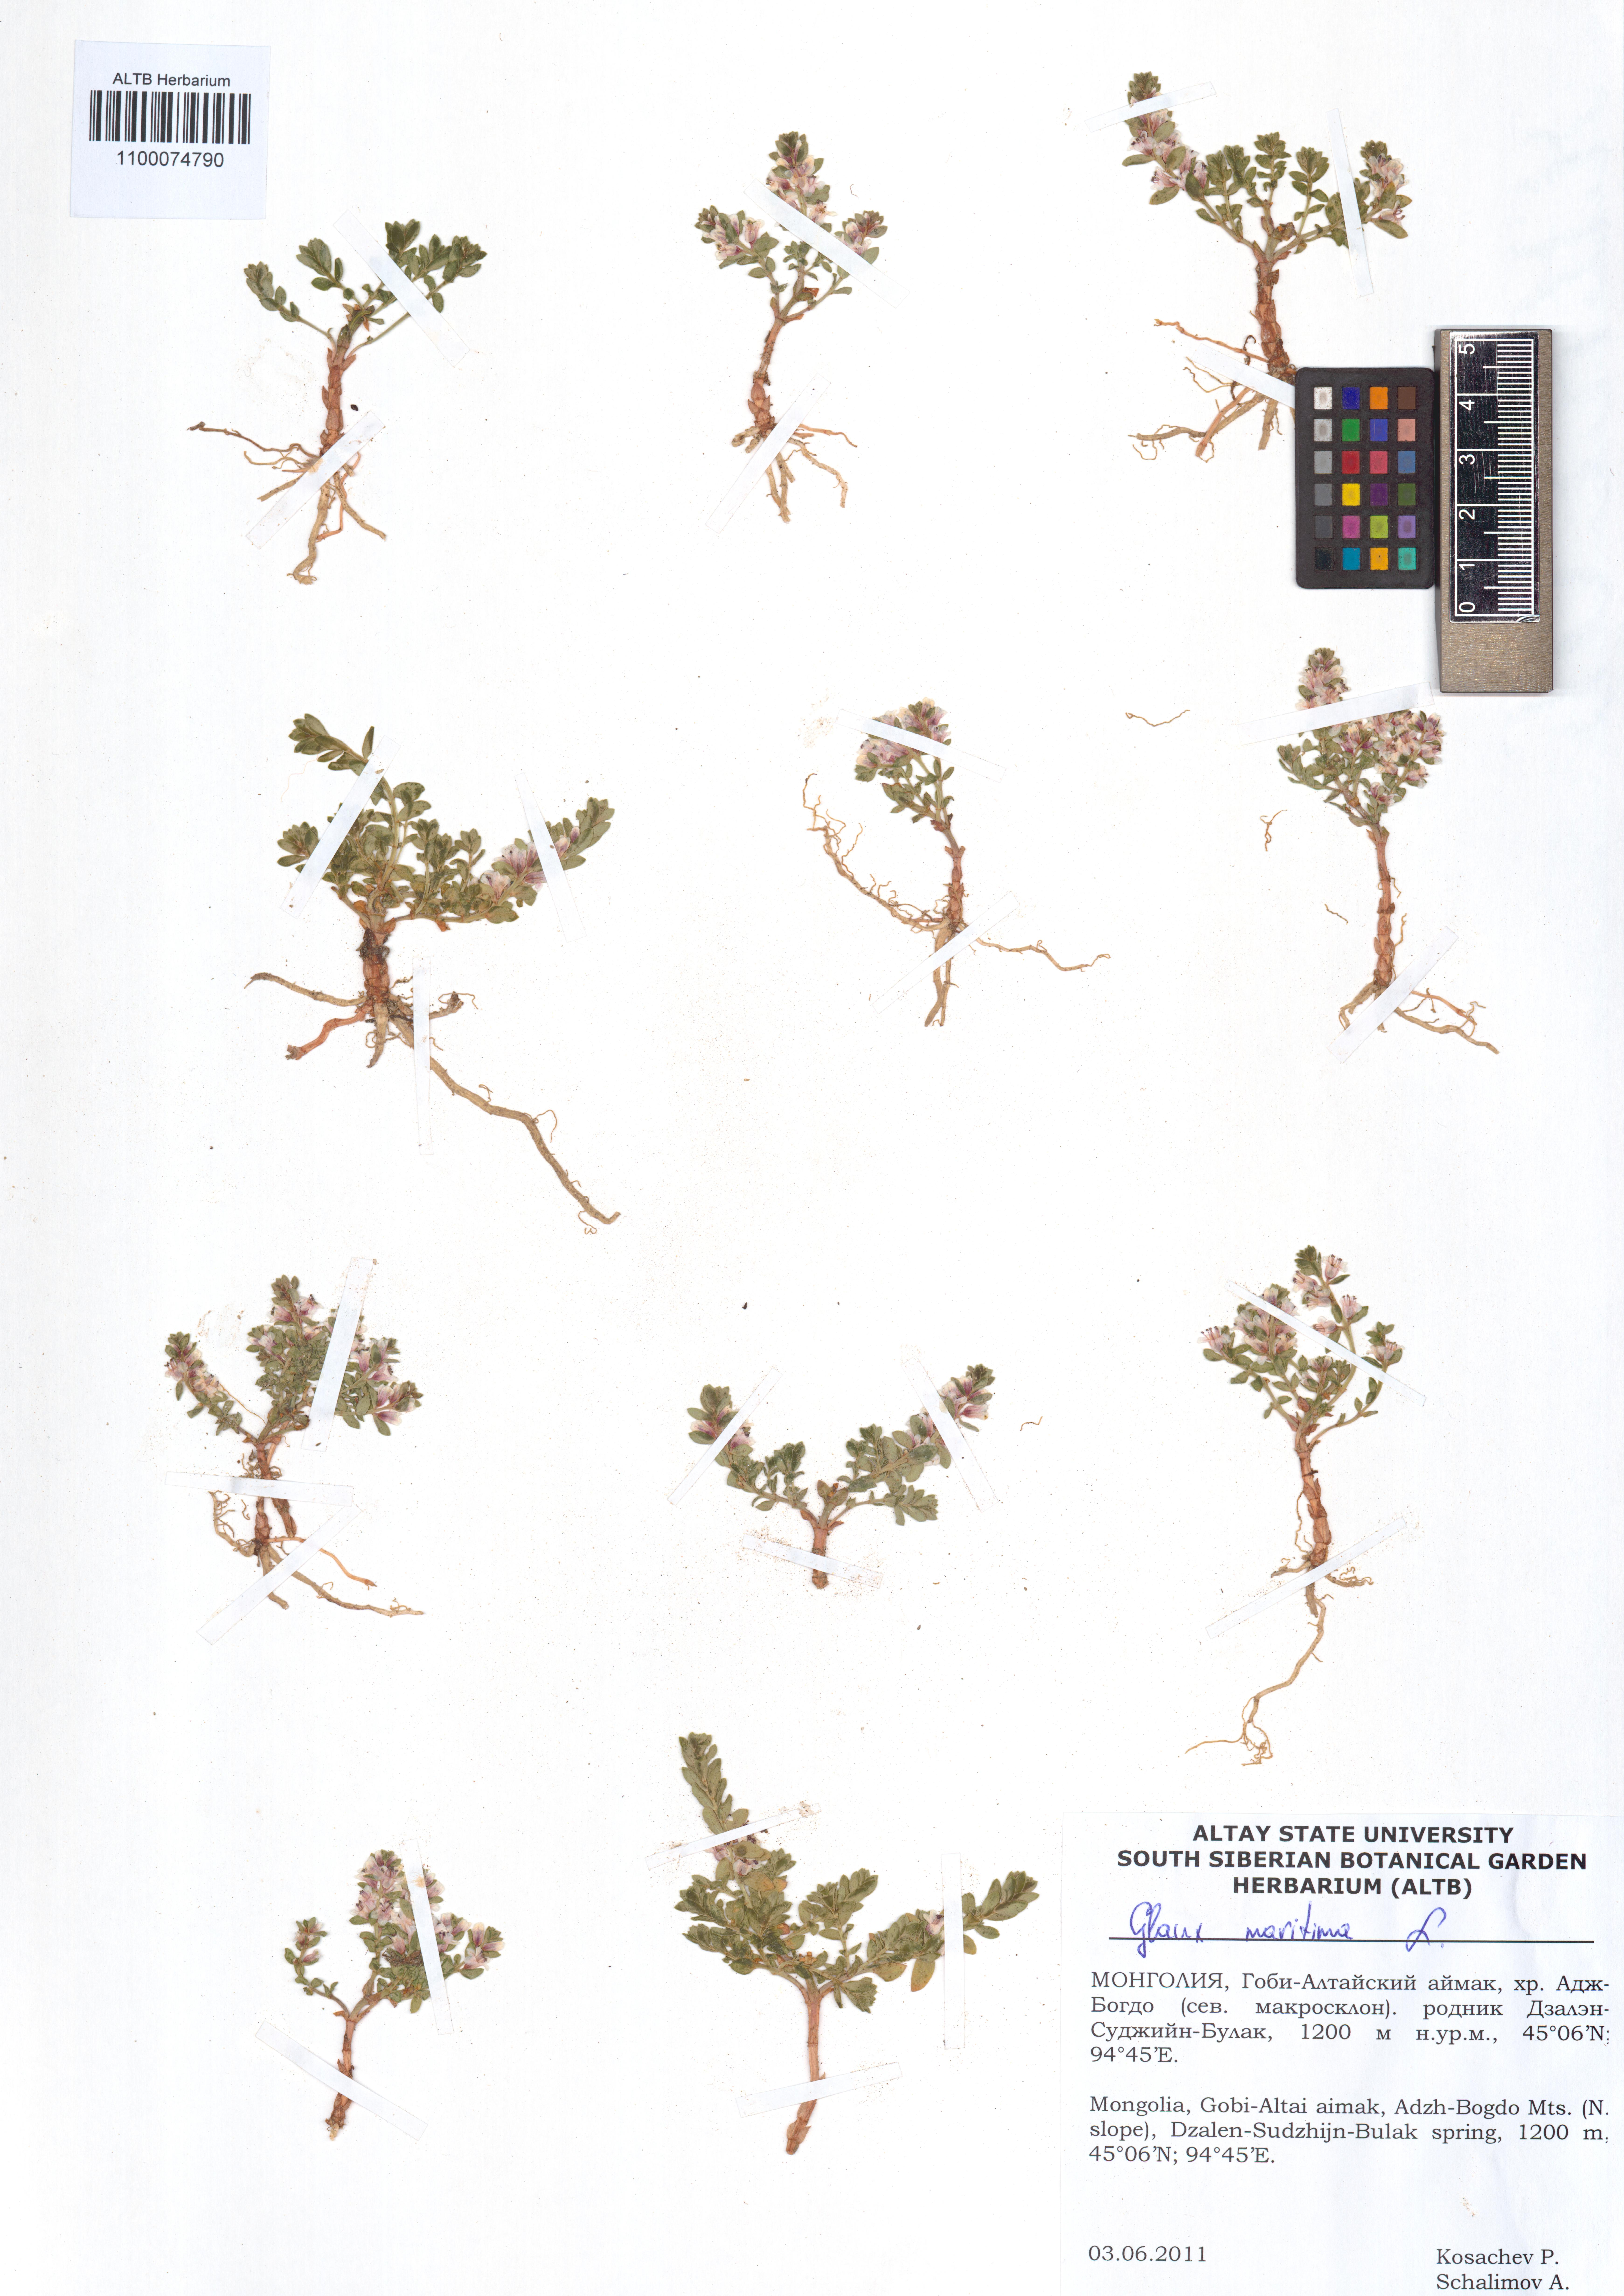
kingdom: Plantae
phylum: Tracheophyta
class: Magnoliopsida
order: Ericales
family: Primulaceae
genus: Lysimachia
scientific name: Lysimachia maritima
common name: Sea milkwort
